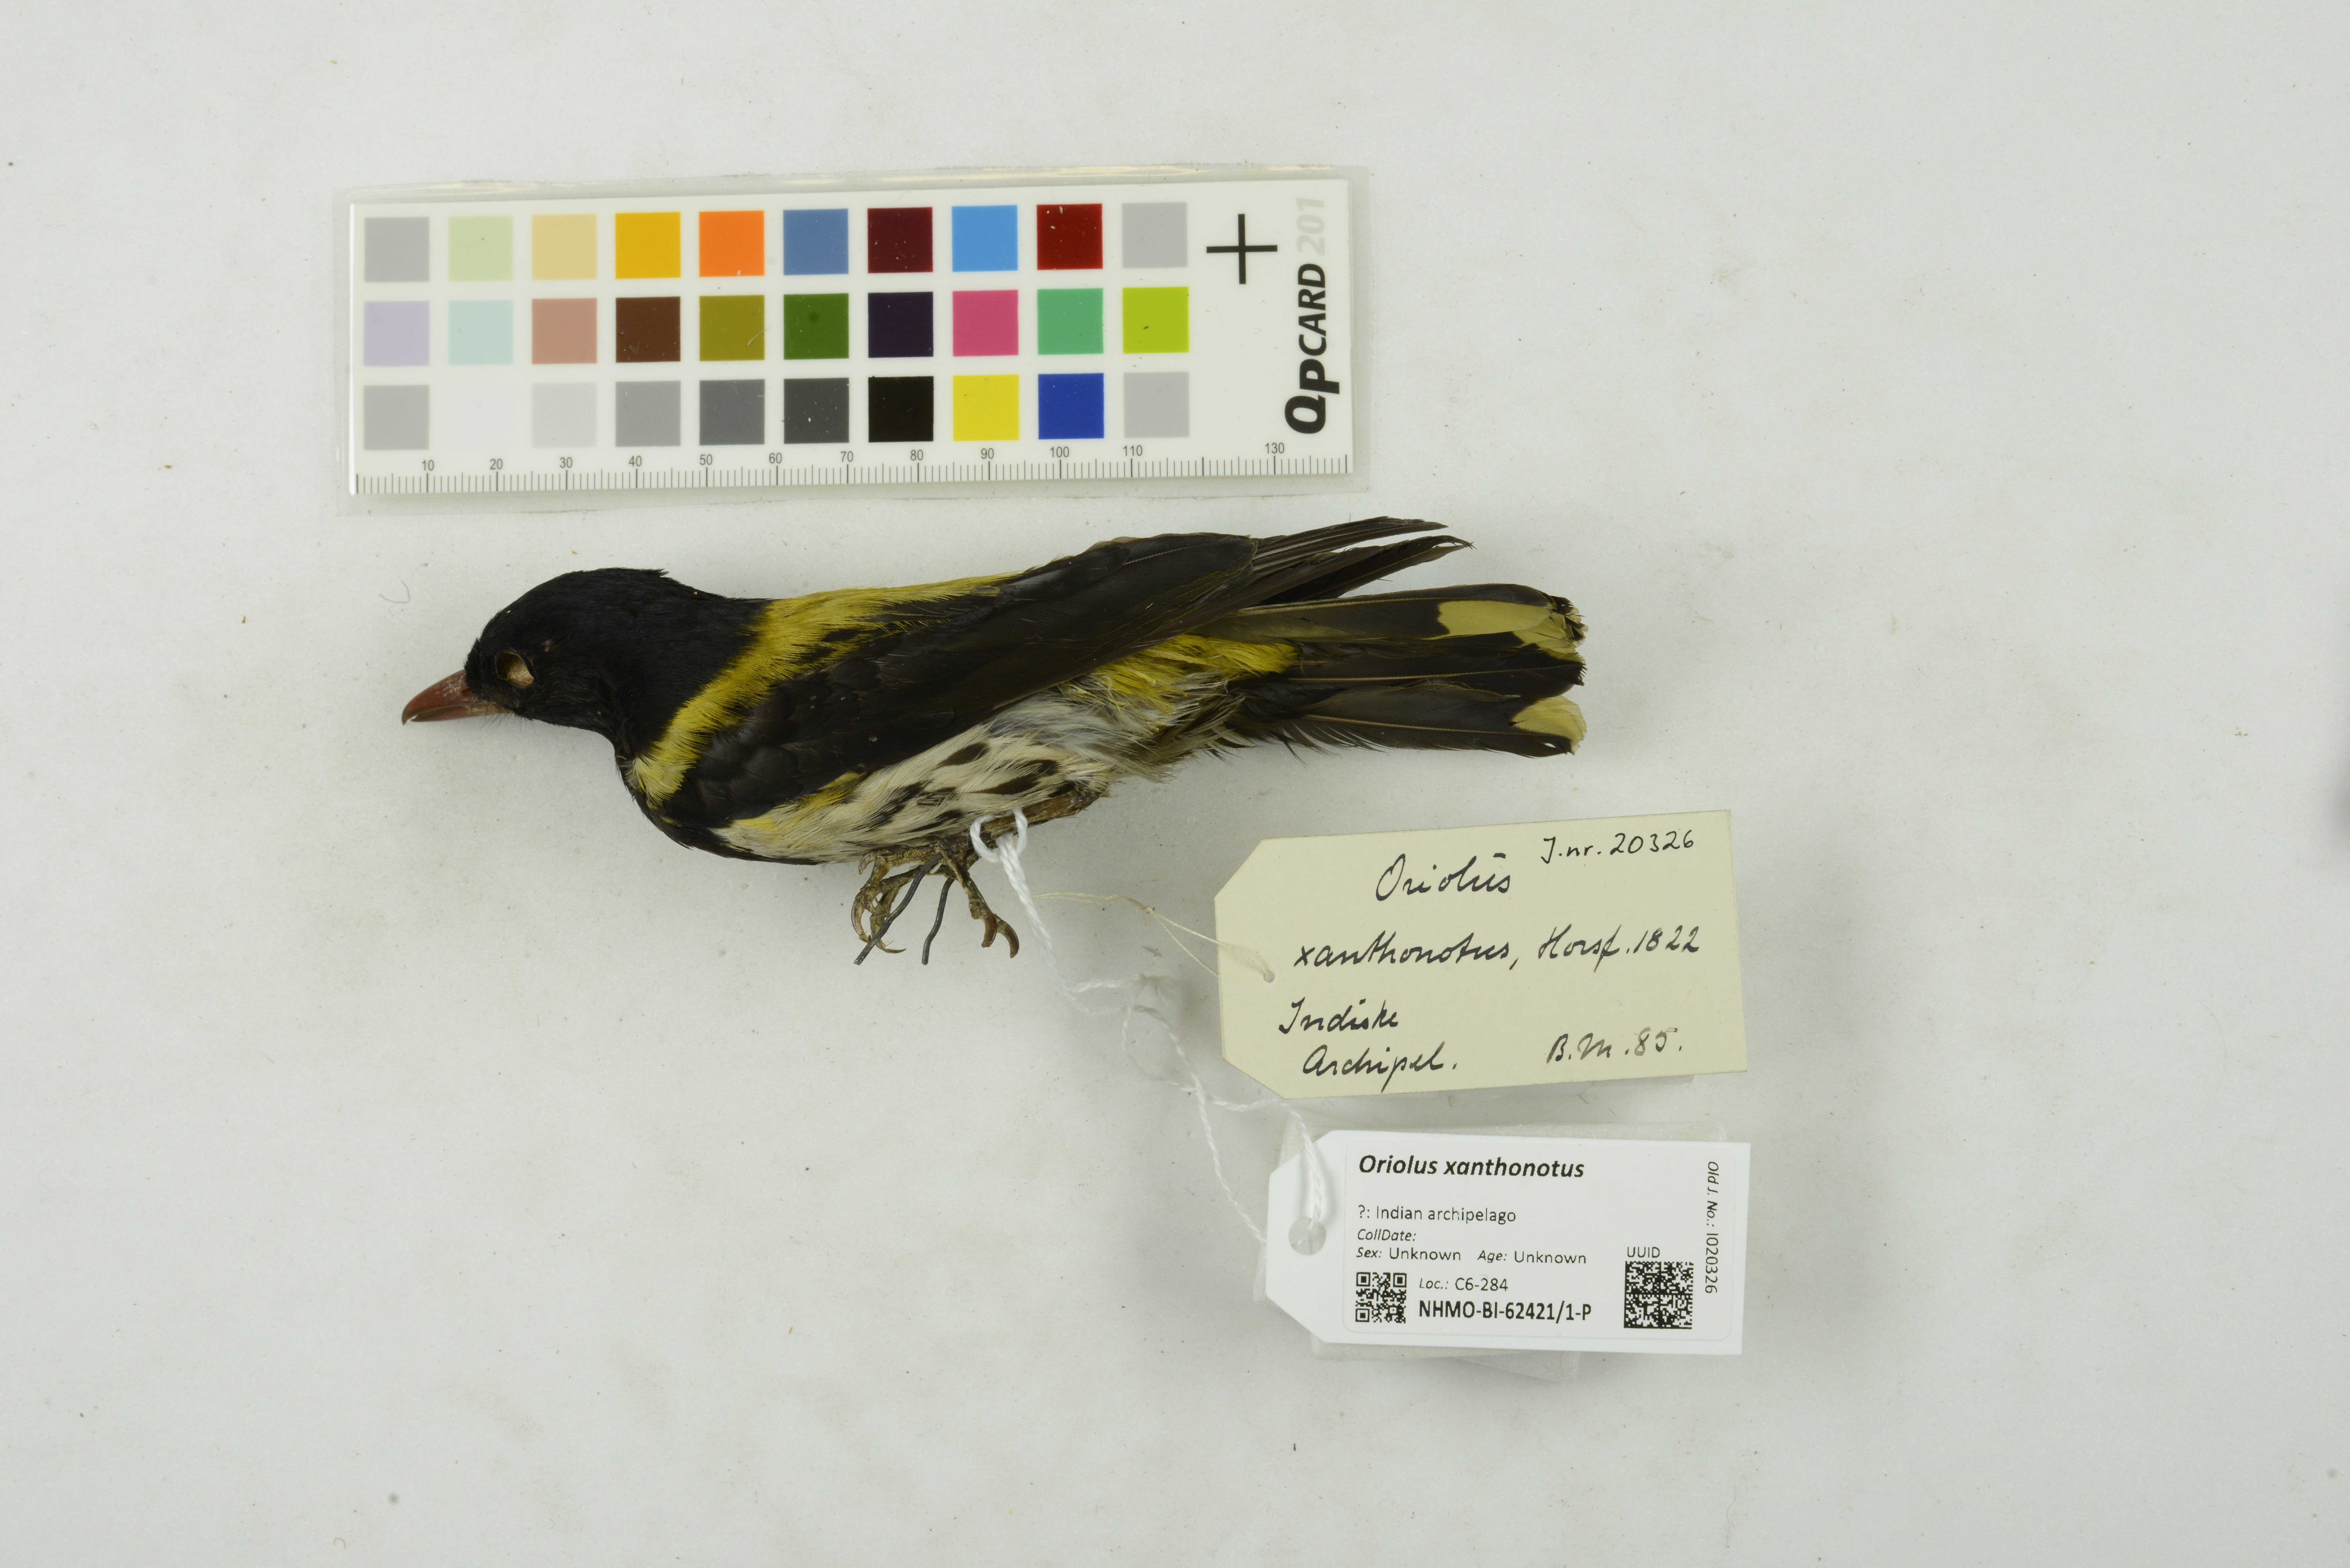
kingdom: Animalia
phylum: Chordata
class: Aves
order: Passeriformes
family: Oriolidae
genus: Oriolus
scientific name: Oriolus xanthonotus
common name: Dark-throated oriole
